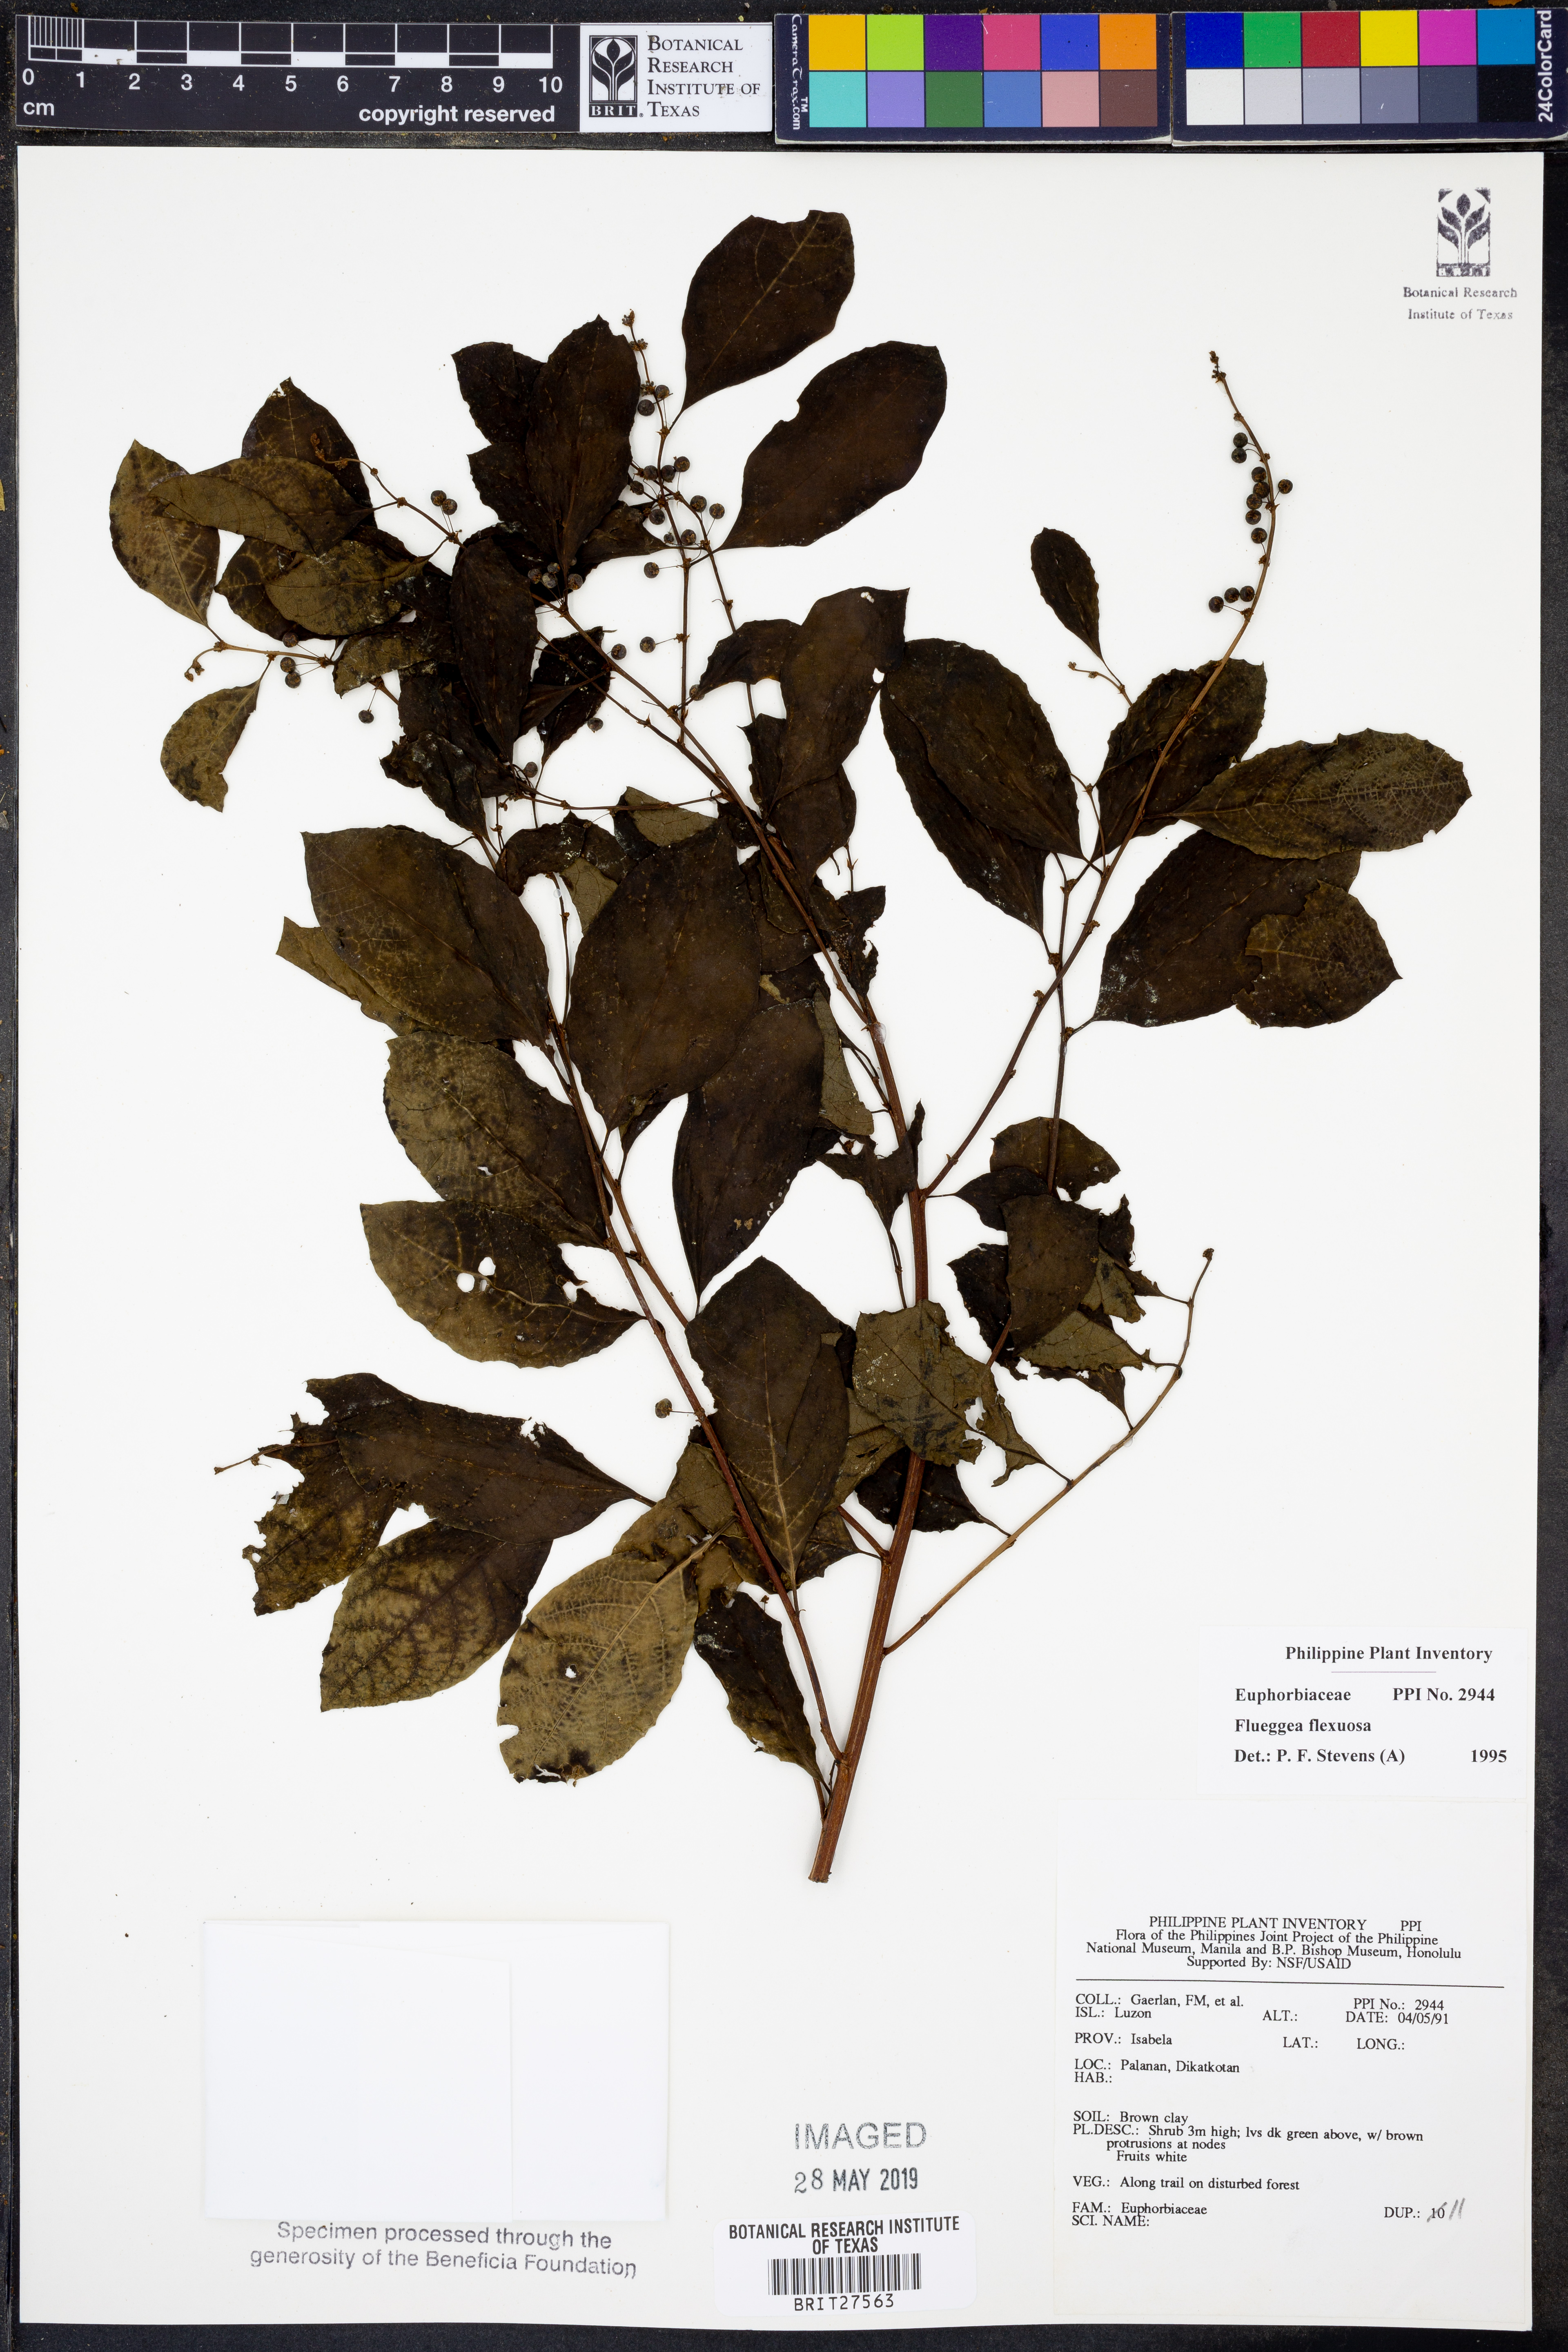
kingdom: Plantae
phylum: Tracheophyta
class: Magnoliopsida
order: Malpighiales
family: Phyllanthaceae
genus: Flueggea
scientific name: Flueggea flexuosa
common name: Poumuli
